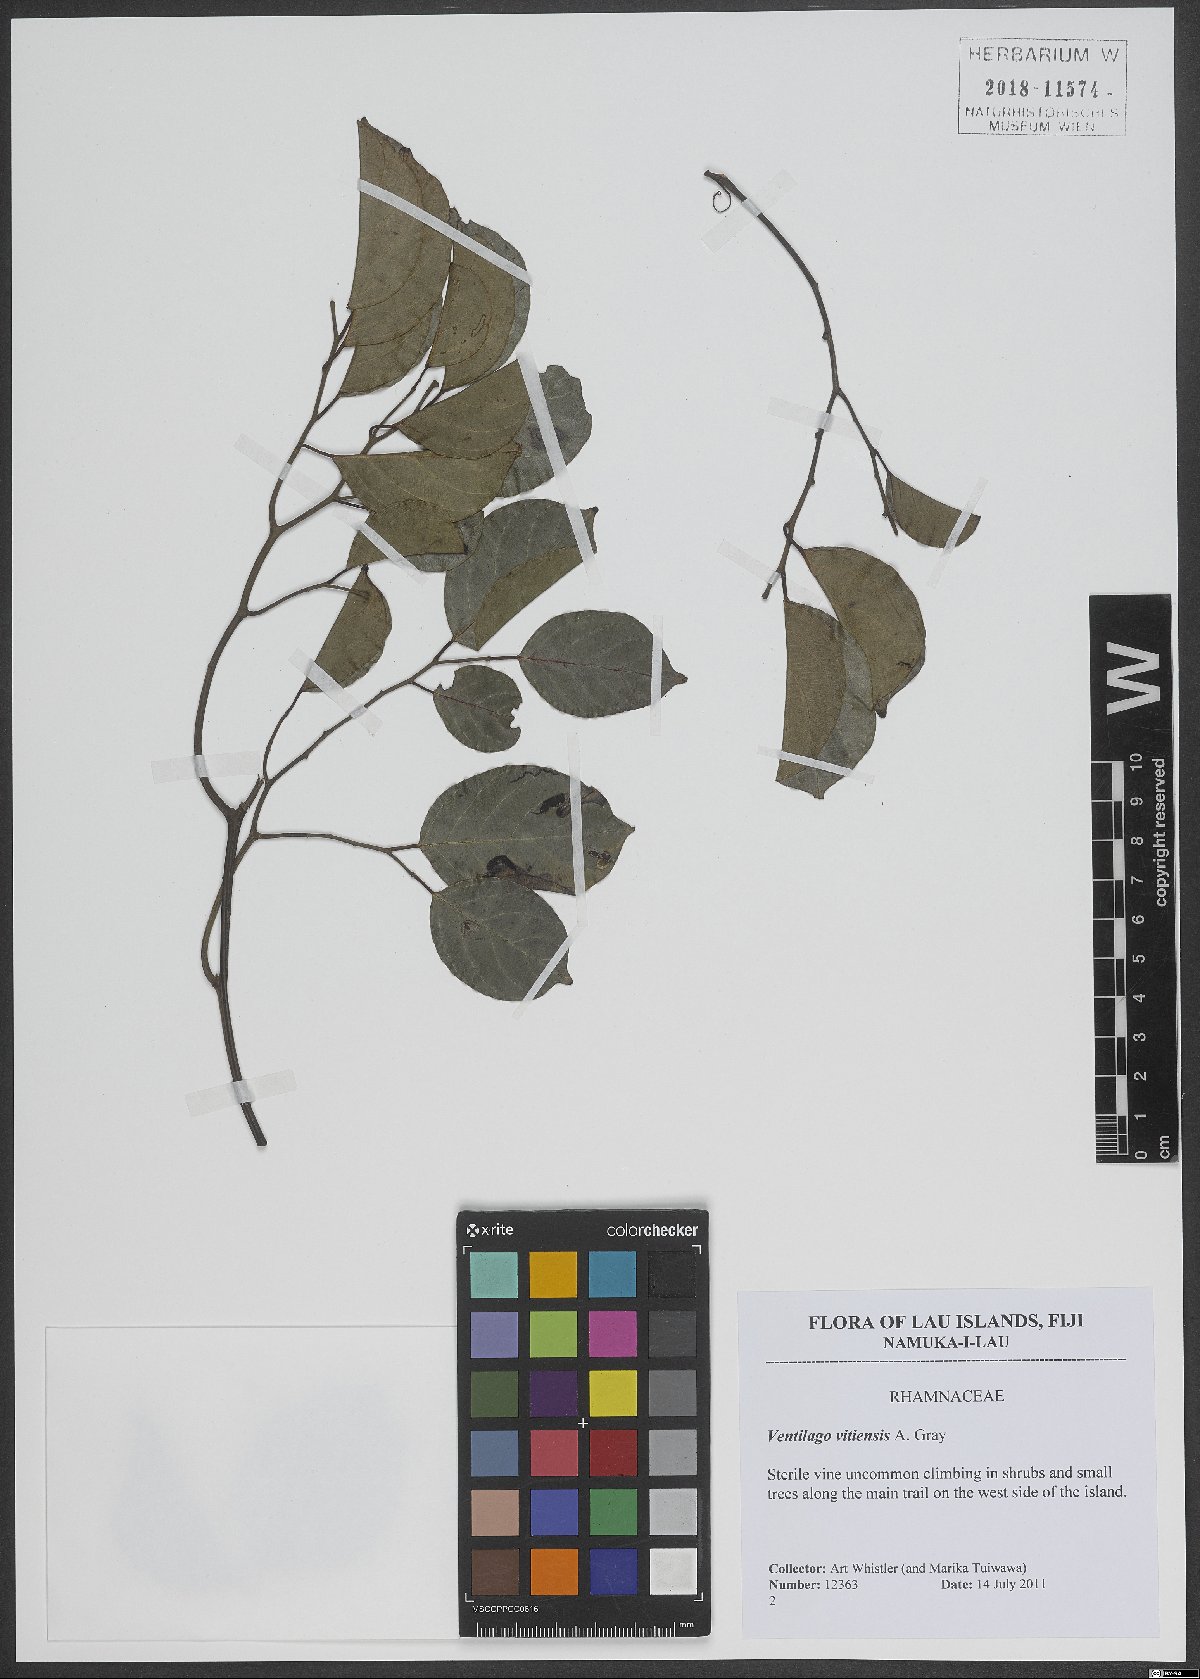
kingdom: Plantae
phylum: Tracheophyta
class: Magnoliopsida
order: Rosales
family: Rhamnaceae
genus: Ventilago
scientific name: Ventilago vitiensis
